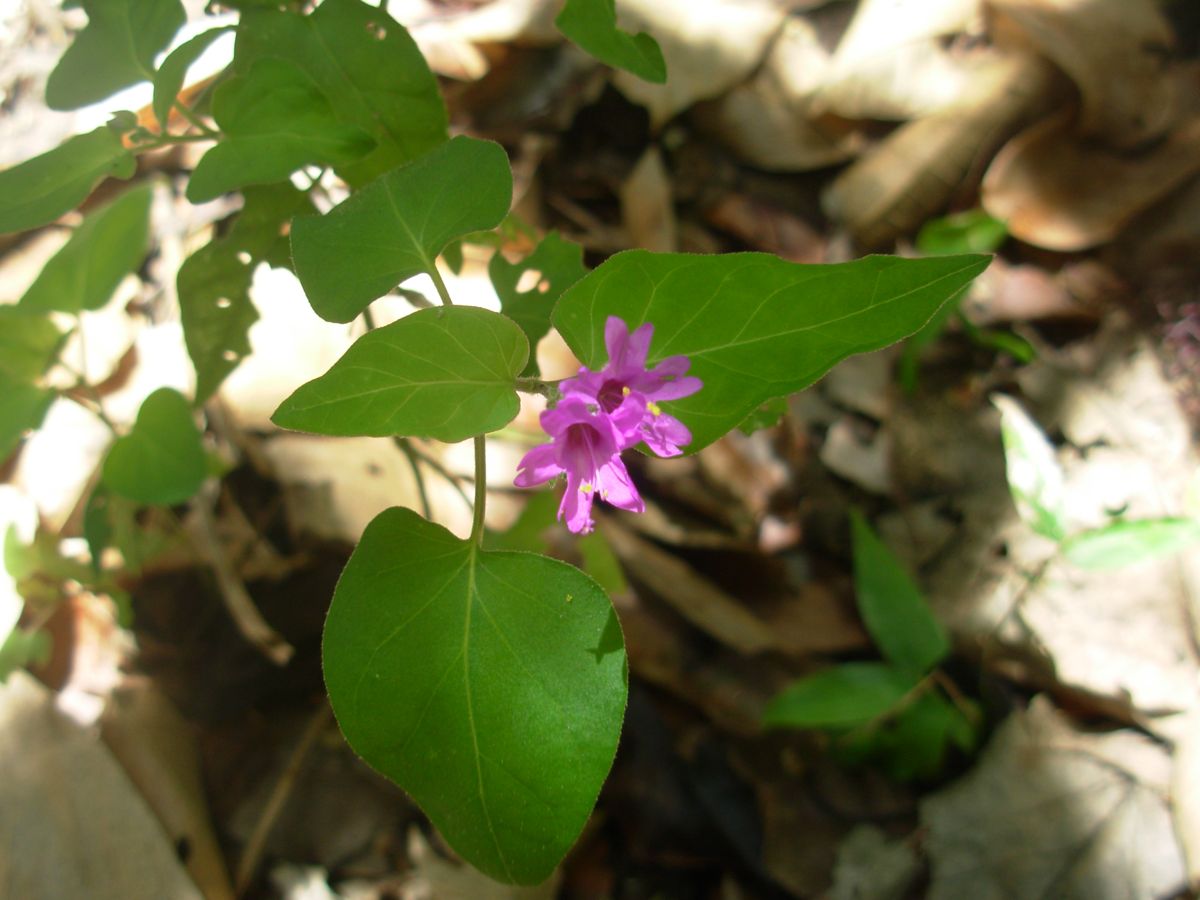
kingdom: Plantae
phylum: Tracheophyta
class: Magnoliopsida
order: Caryophyllales
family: Nyctaginaceae
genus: Mirabilis
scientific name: Mirabilis violacea
